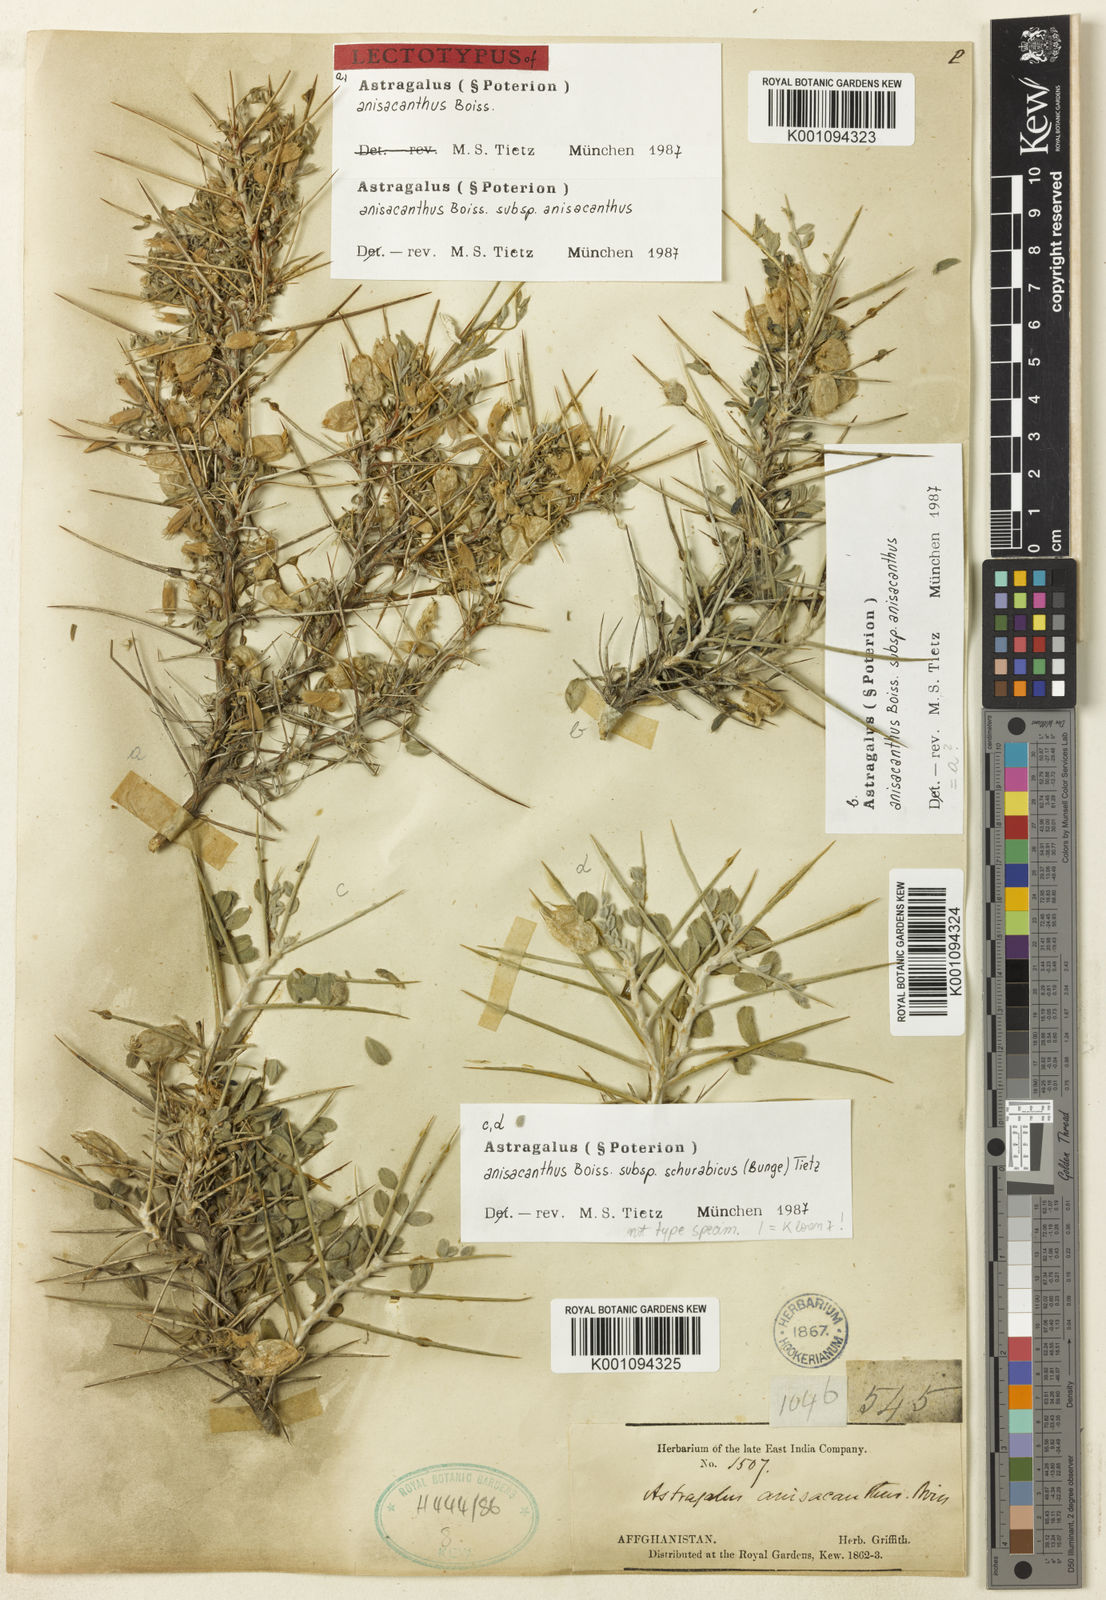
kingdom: Plantae
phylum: Tracheophyta
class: Magnoliopsida
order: Fabales
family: Fabaceae
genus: Astragalus
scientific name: Astragalus anisacanthus
